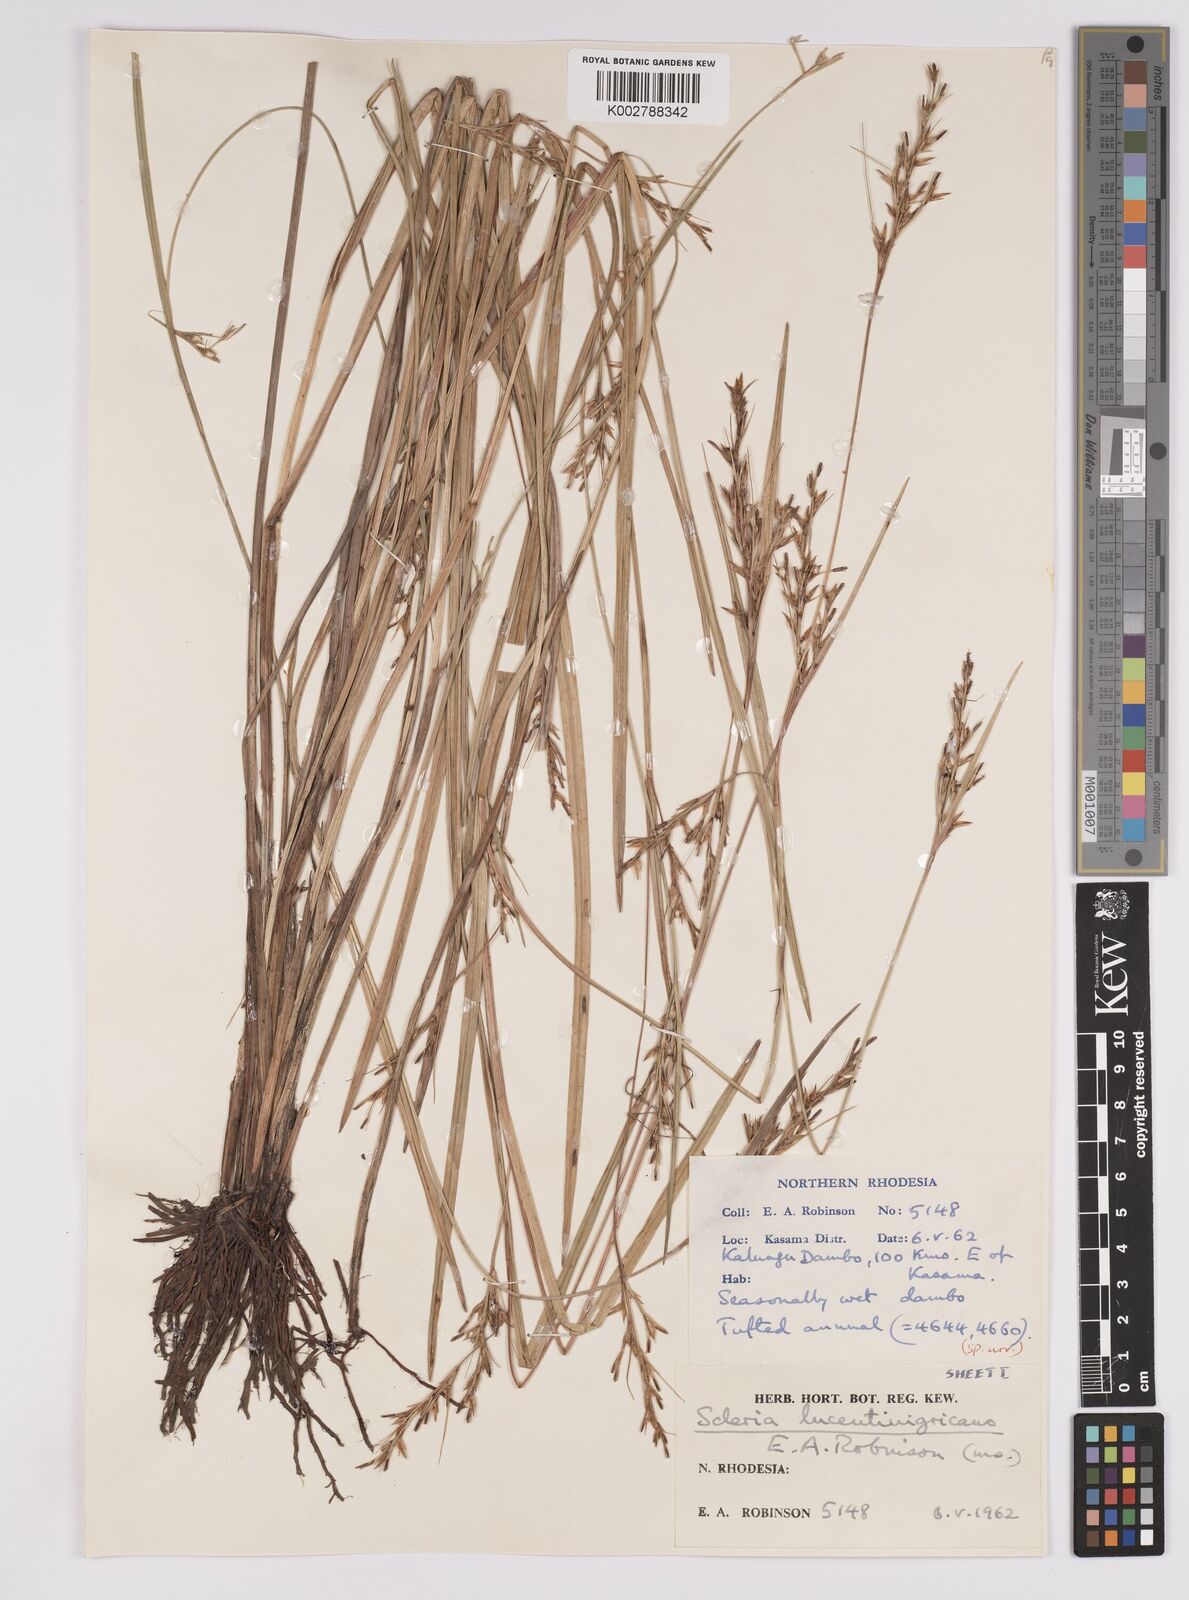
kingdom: Plantae
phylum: Tracheophyta
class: Liliopsida
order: Poales
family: Cyperaceae
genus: Scleria
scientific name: Scleria lucentinigricans
